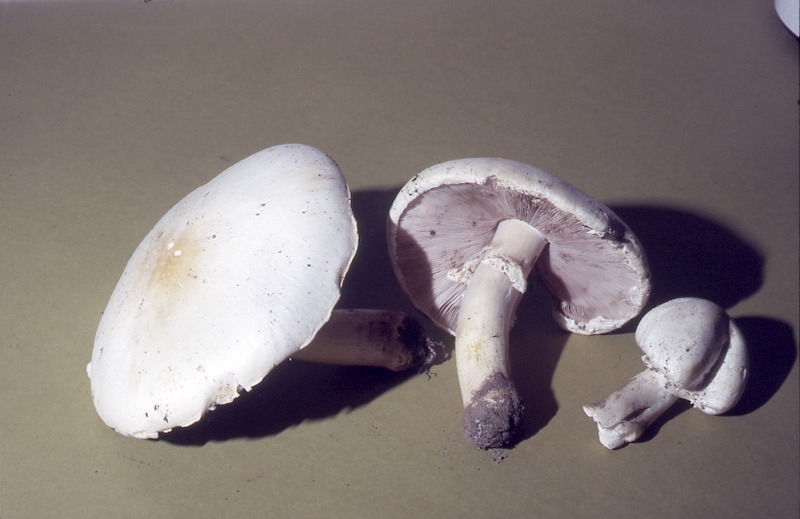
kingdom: Fungi
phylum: Basidiomycota
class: Agaricomycetes
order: Agaricales
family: Agaricaceae
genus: Agaricus
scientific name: Agaricus arvensis
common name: Horse mushroom
